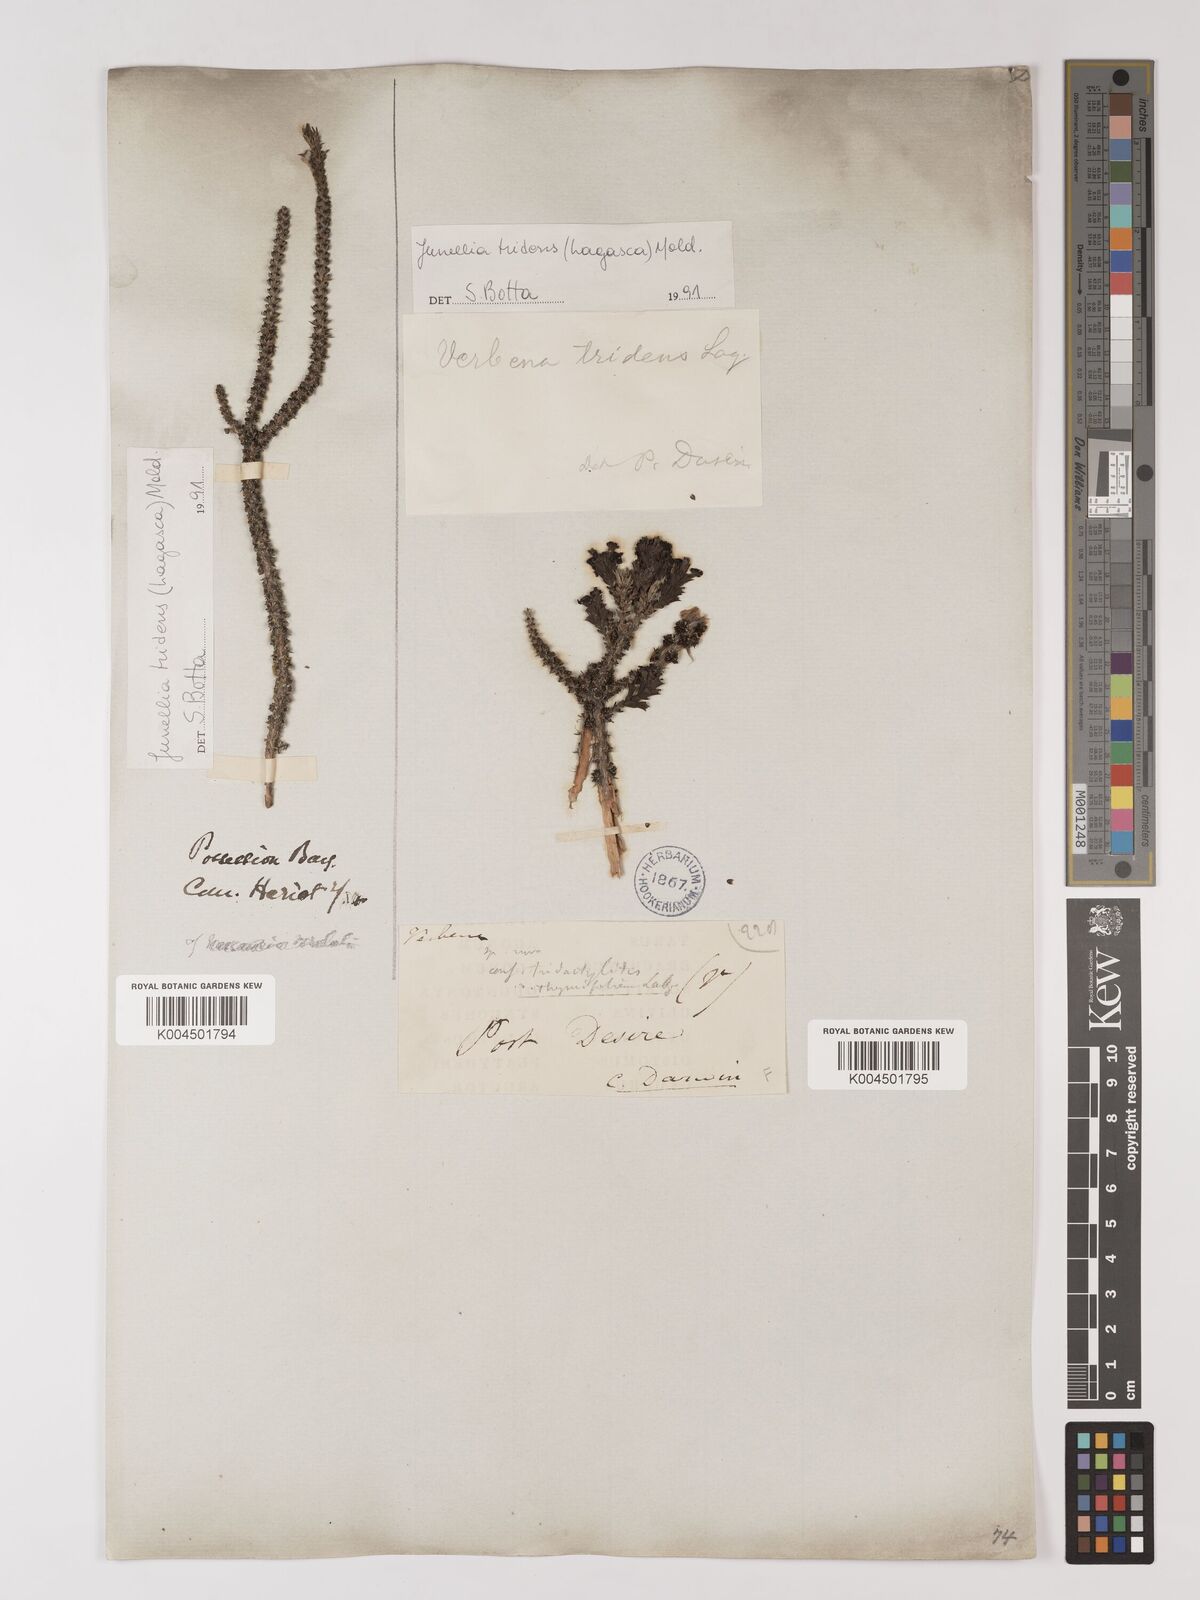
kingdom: Plantae
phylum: Tracheophyta
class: Magnoliopsida
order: Lamiales
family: Verbenaceae
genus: Mulguraea
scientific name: Mulguraea tridens
